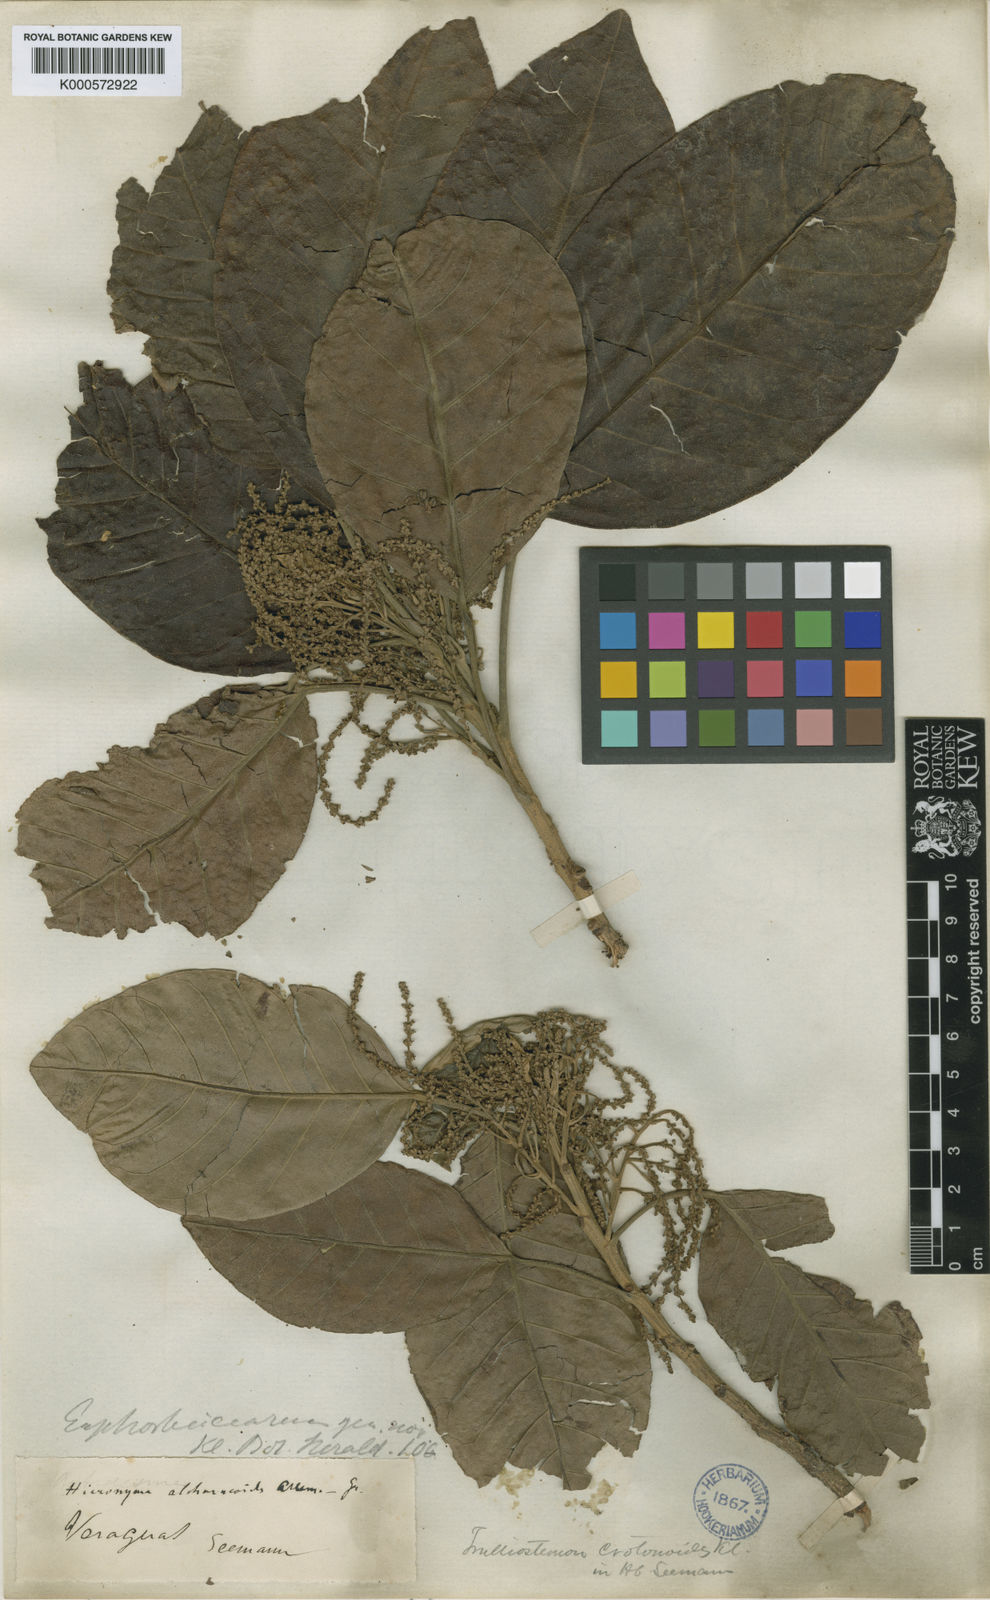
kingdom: Plantae
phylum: Tracheophyta
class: Magnoliopsida
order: Malpighiales
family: Phyllanthaceae
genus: Hieronyma
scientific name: Hieronyma
